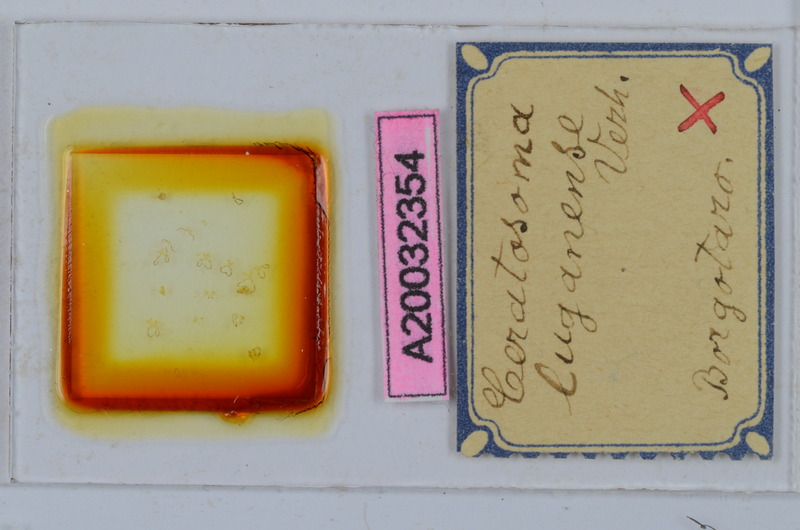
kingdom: Animalia
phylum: Arthropoda
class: Diplopoda
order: Chordeumatida
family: Craspedosomatidae
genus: Bomogona
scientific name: Bomogona lombardica
